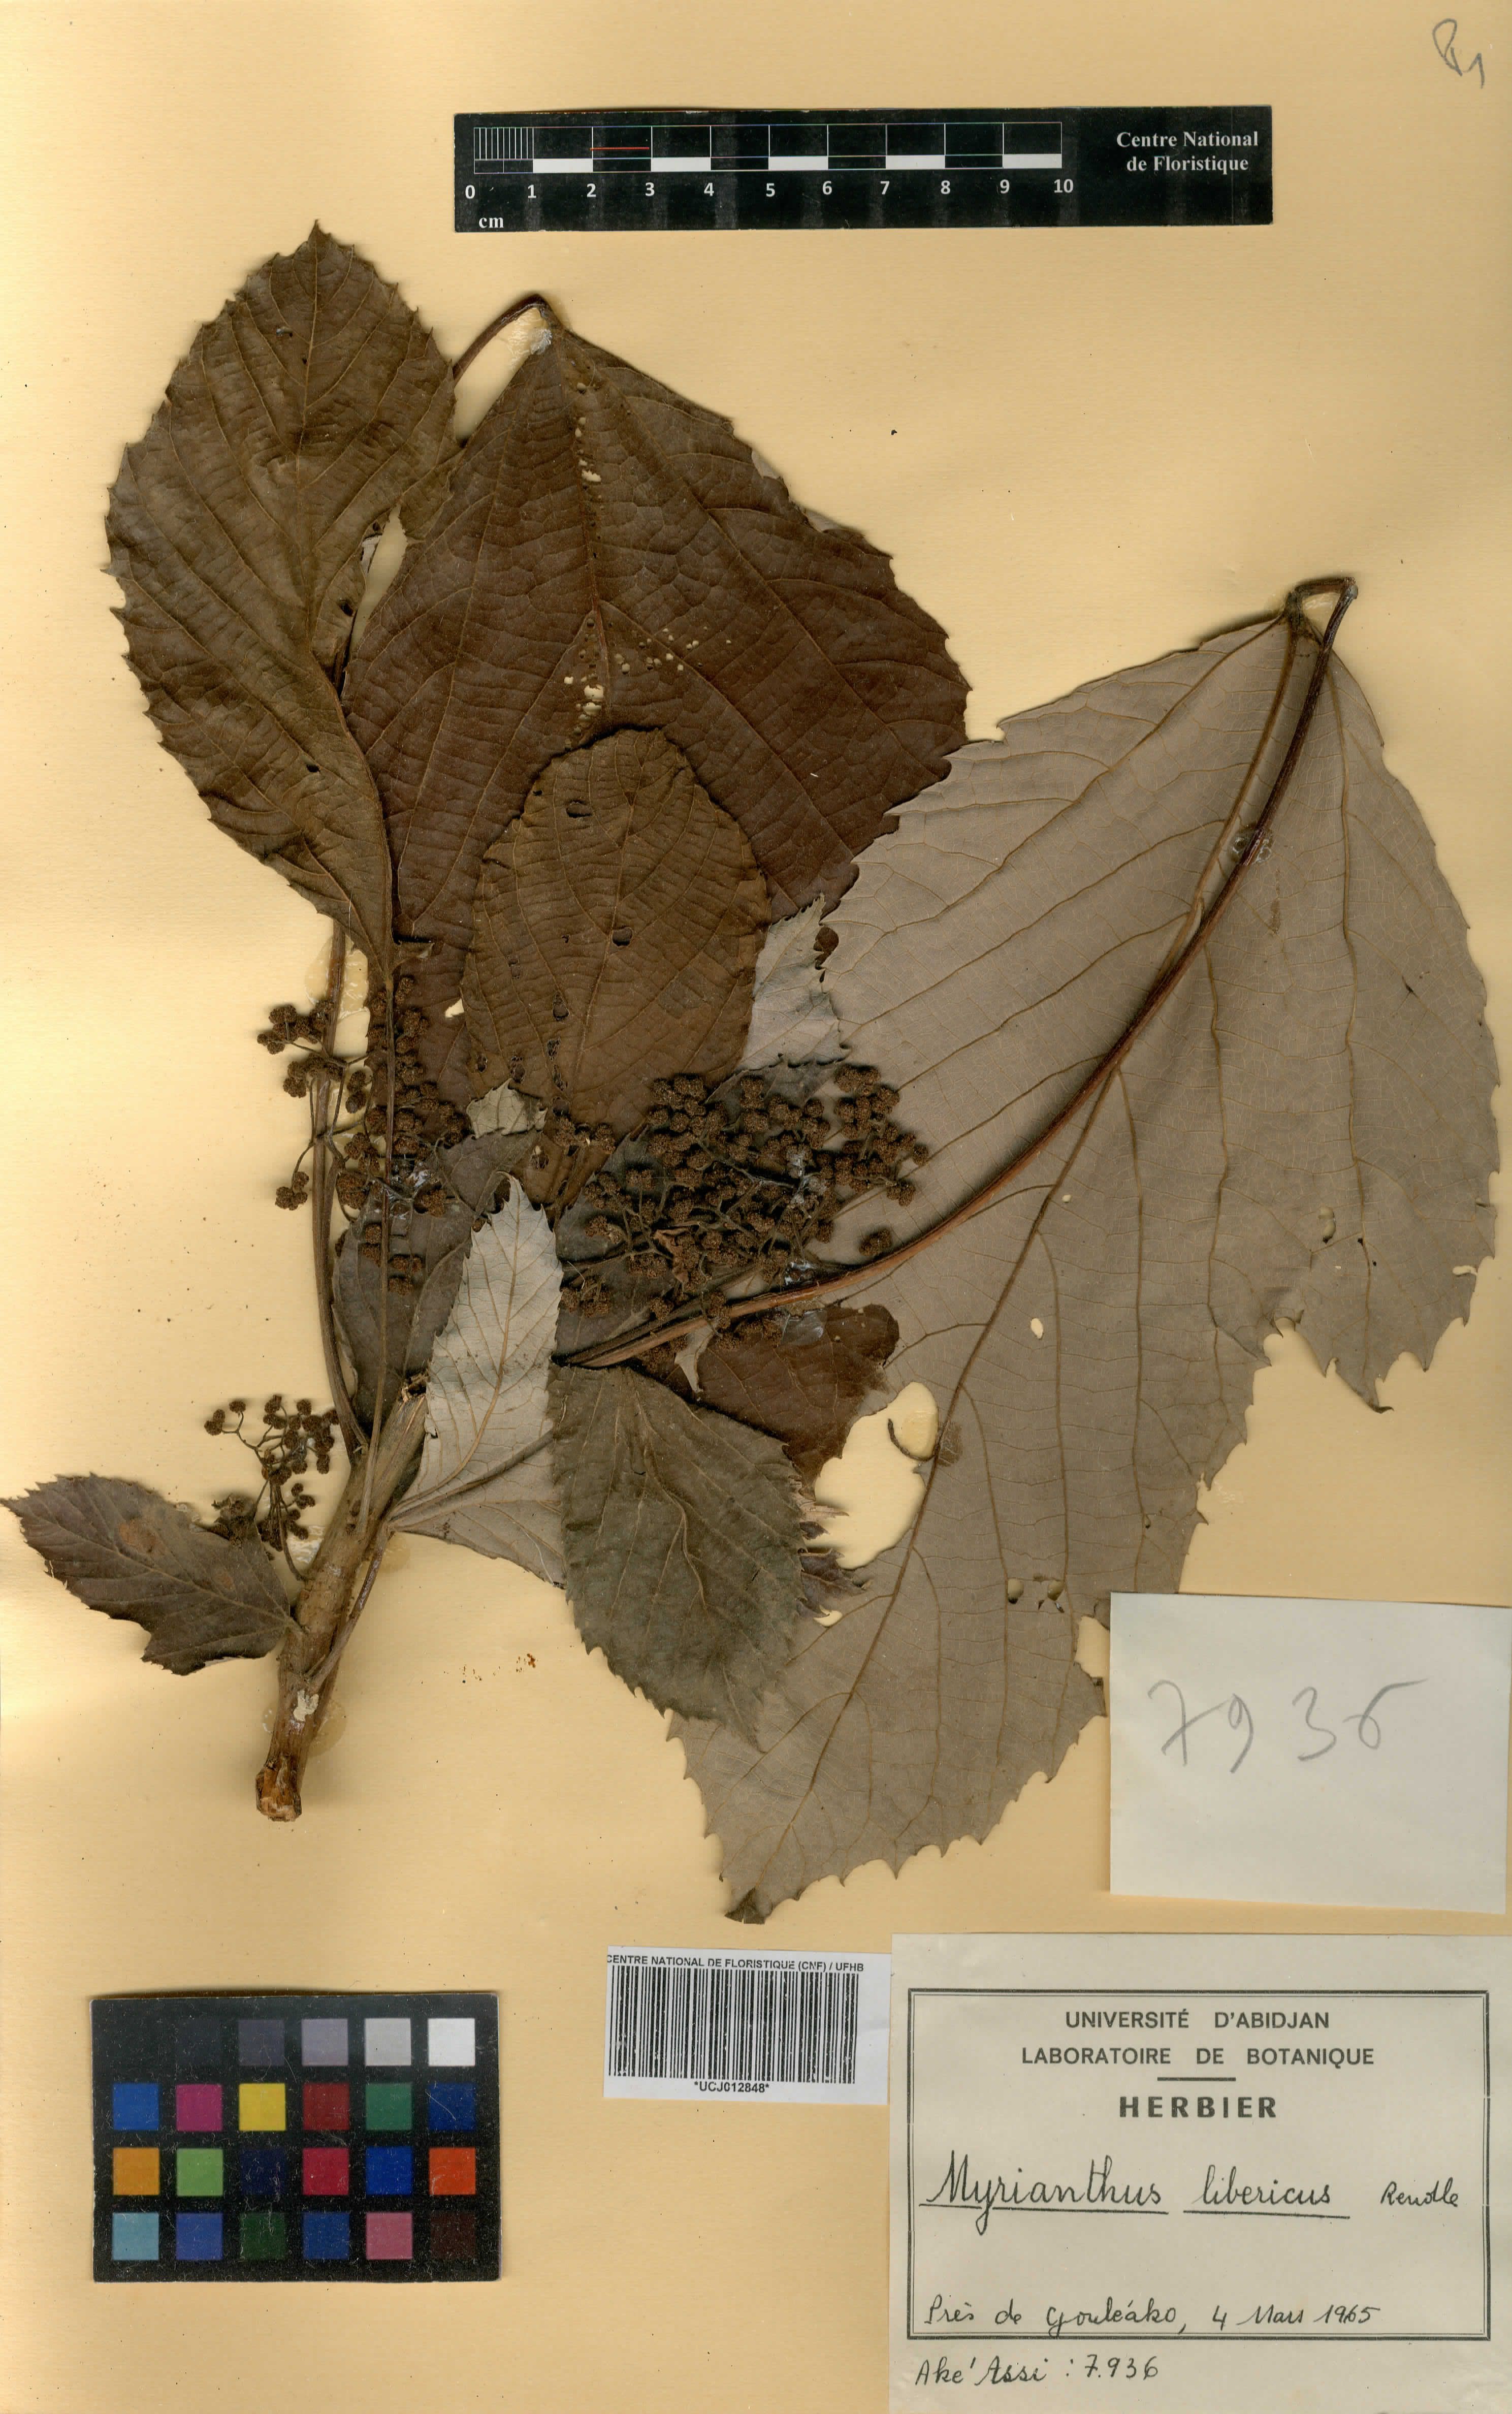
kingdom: Plantae
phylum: Tracheophyta
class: Magnoliopsida
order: Rosales
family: Urticaceae
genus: Myrianthus
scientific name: Myrianthus libericus
